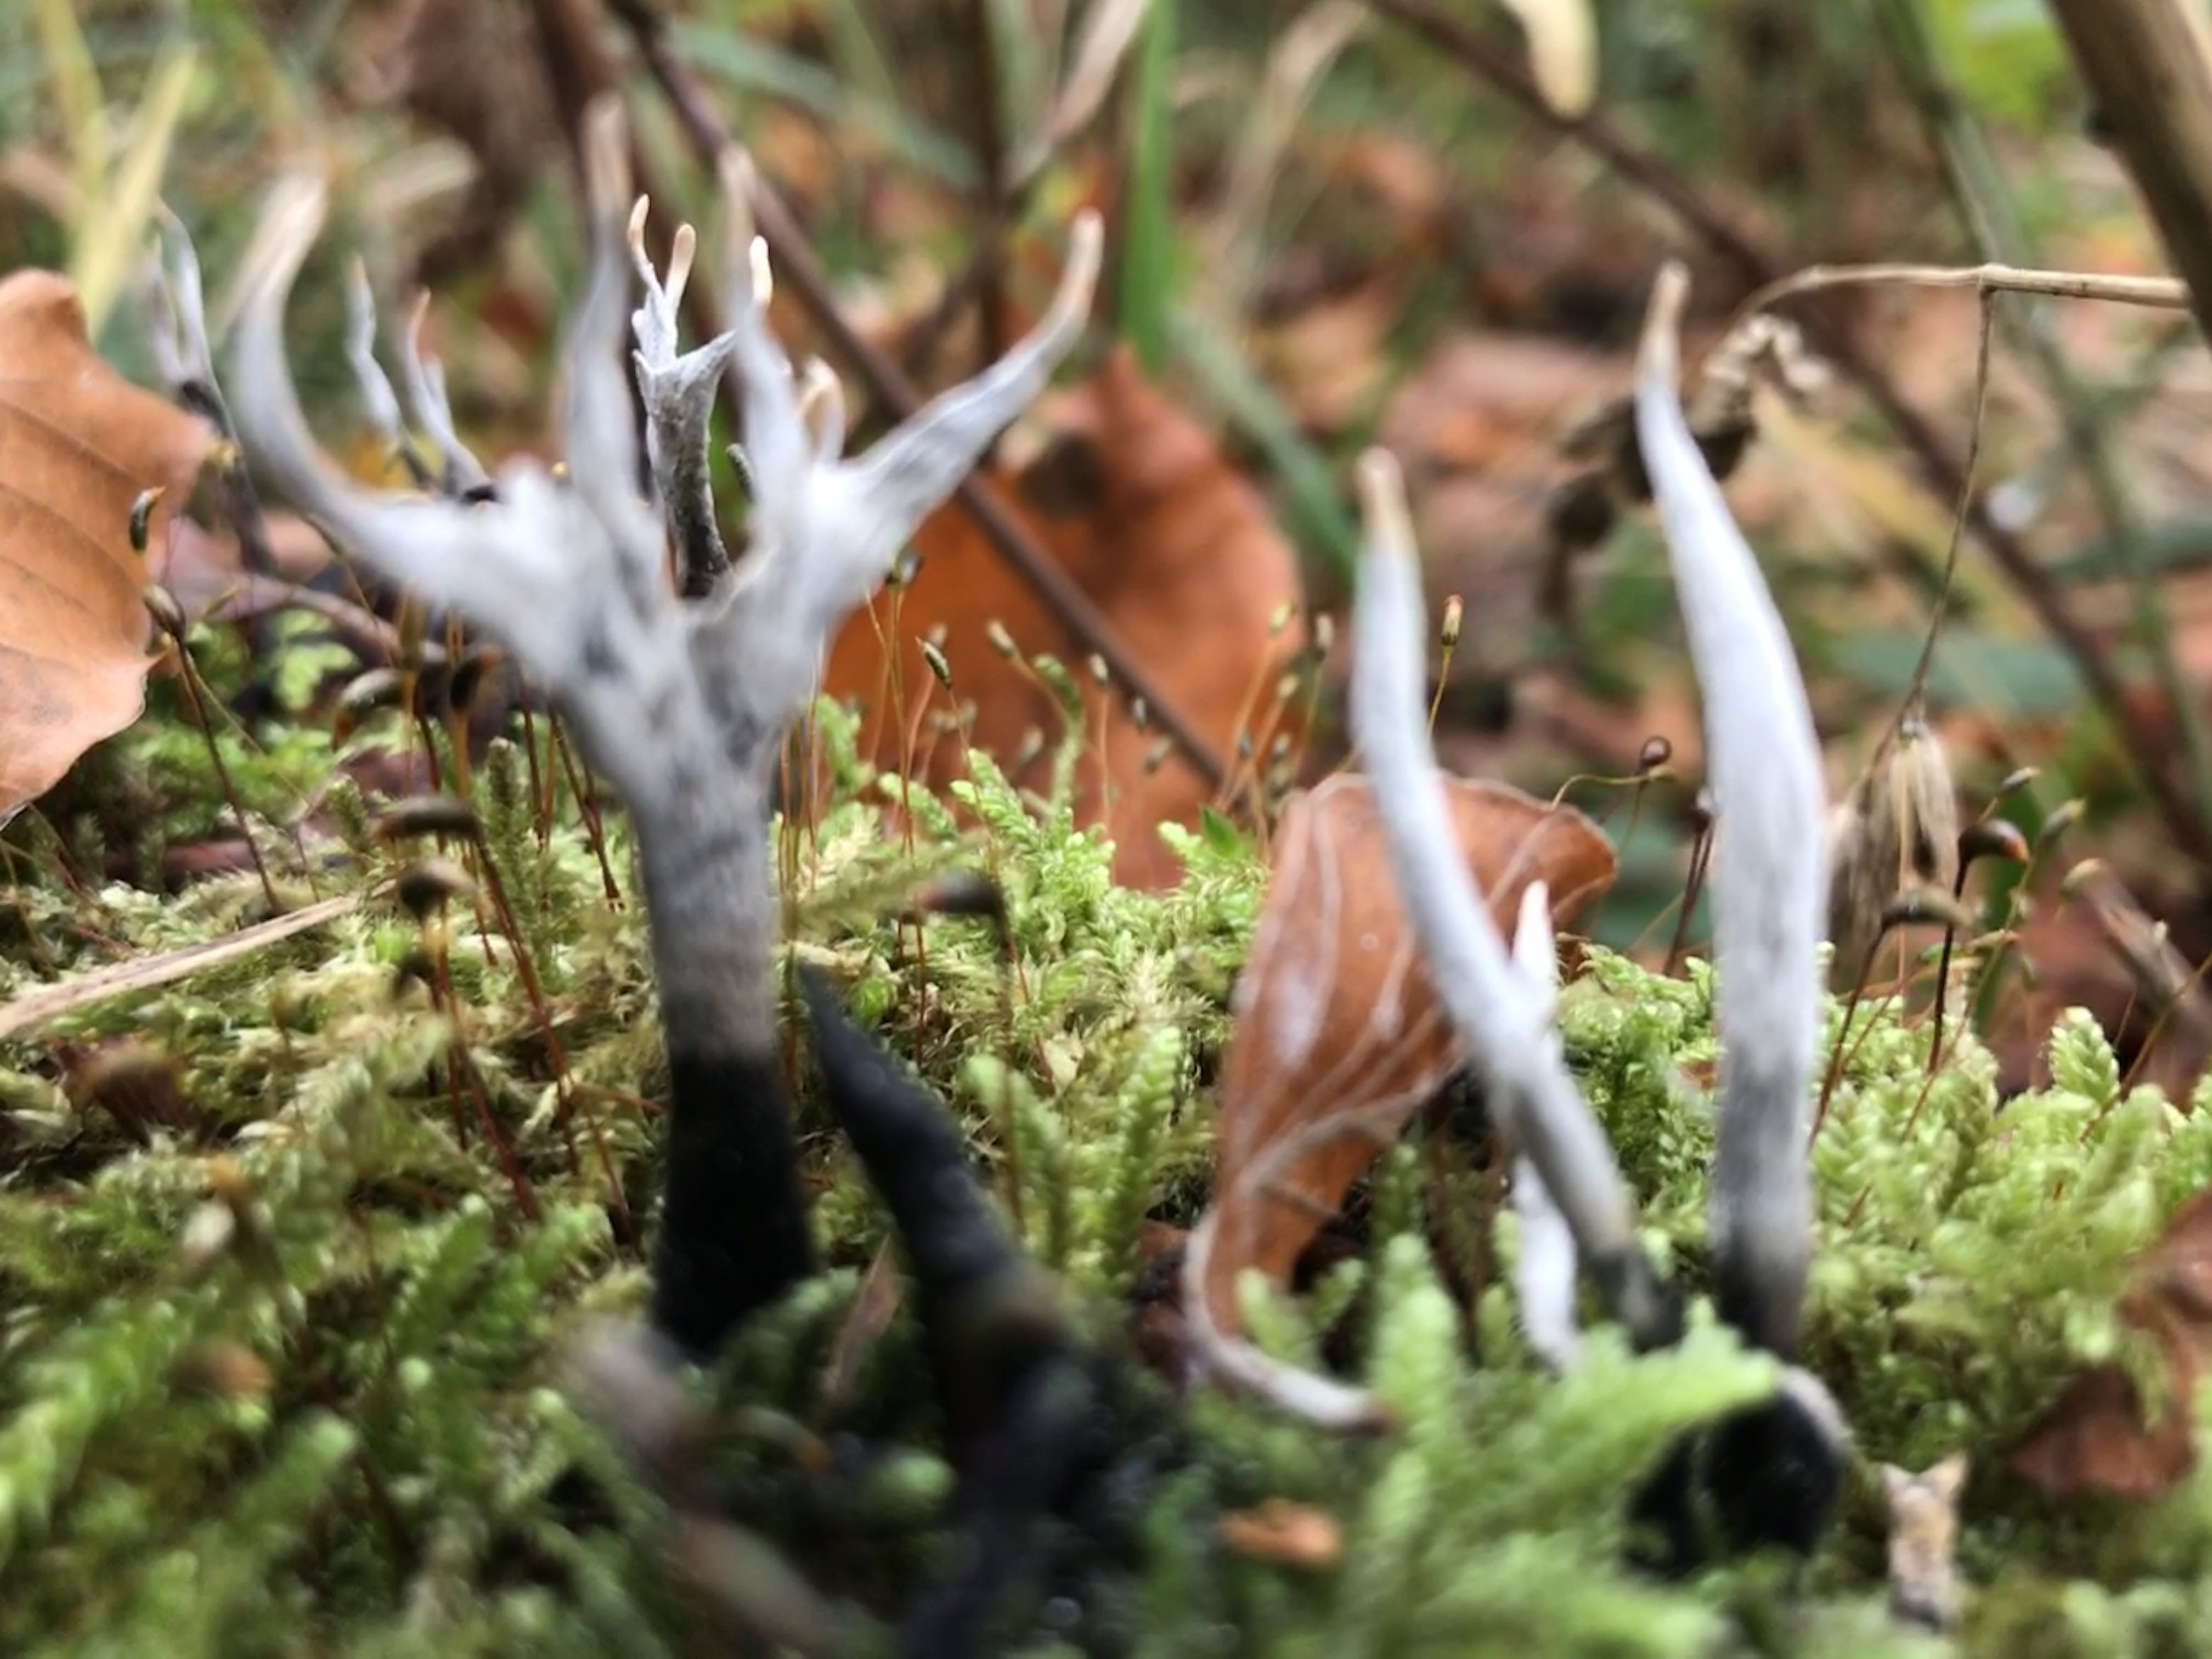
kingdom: Fungi
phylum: Ascomycota
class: Sordariomycetes
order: Xylariales
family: Xylariaceae
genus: Xylaria
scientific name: Xylaria hypoxylon
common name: grenet stødsvamp
